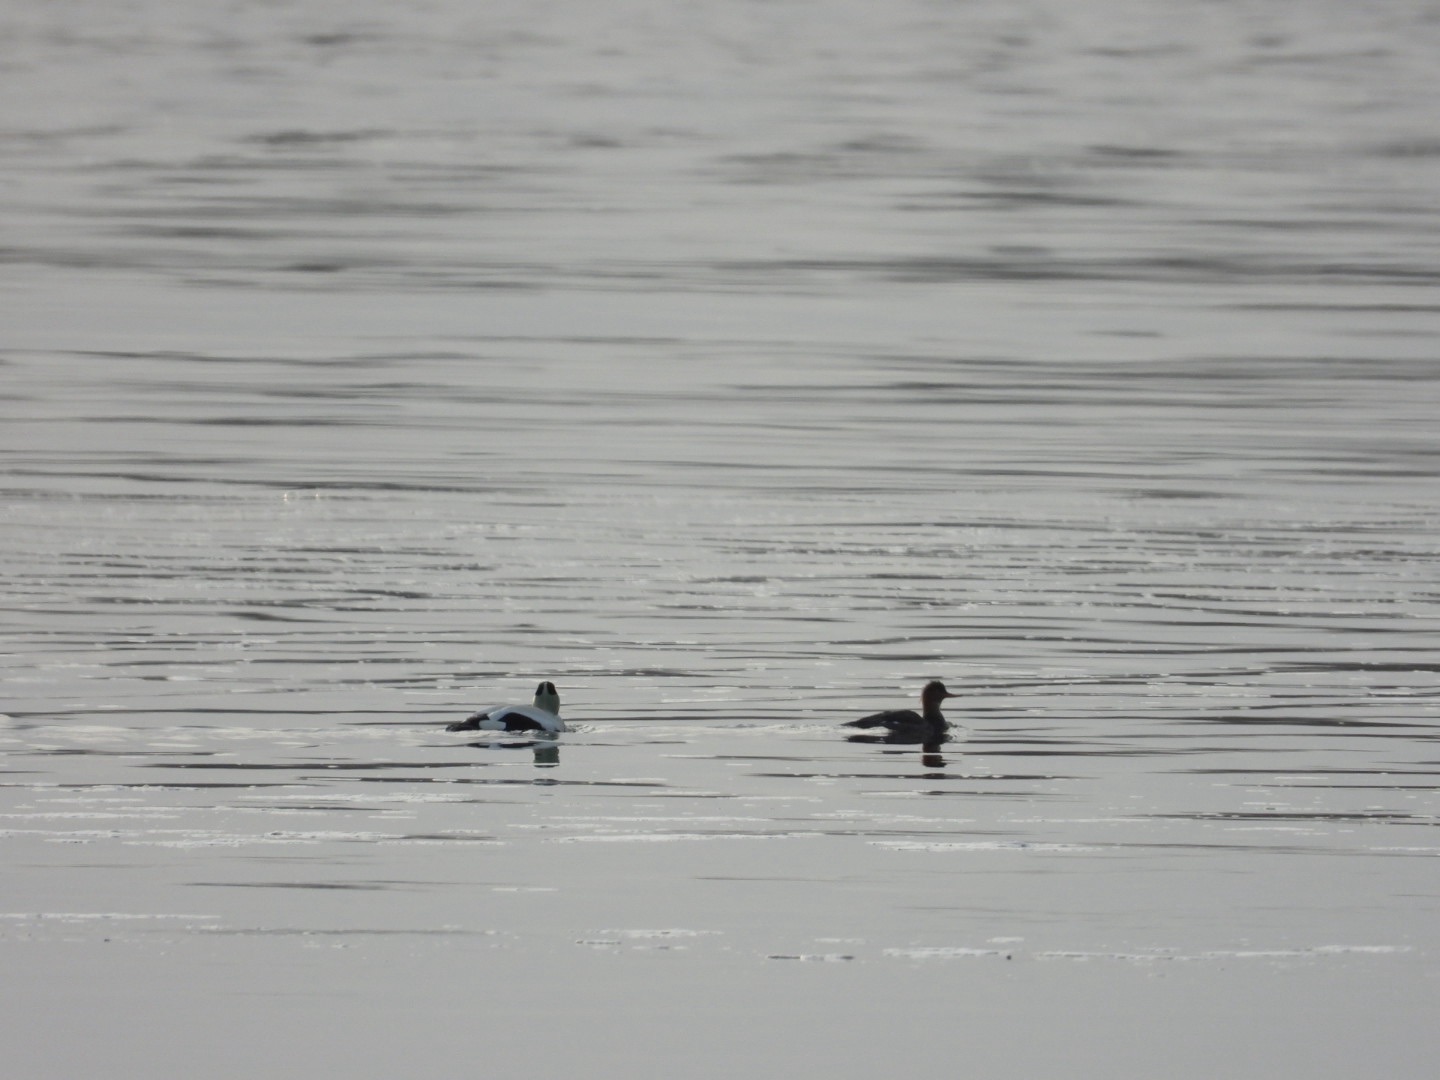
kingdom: Animalia
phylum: Chordata
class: Aves
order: Anseriformes
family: Anatidae
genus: Somateria
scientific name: Somateria mollissima
